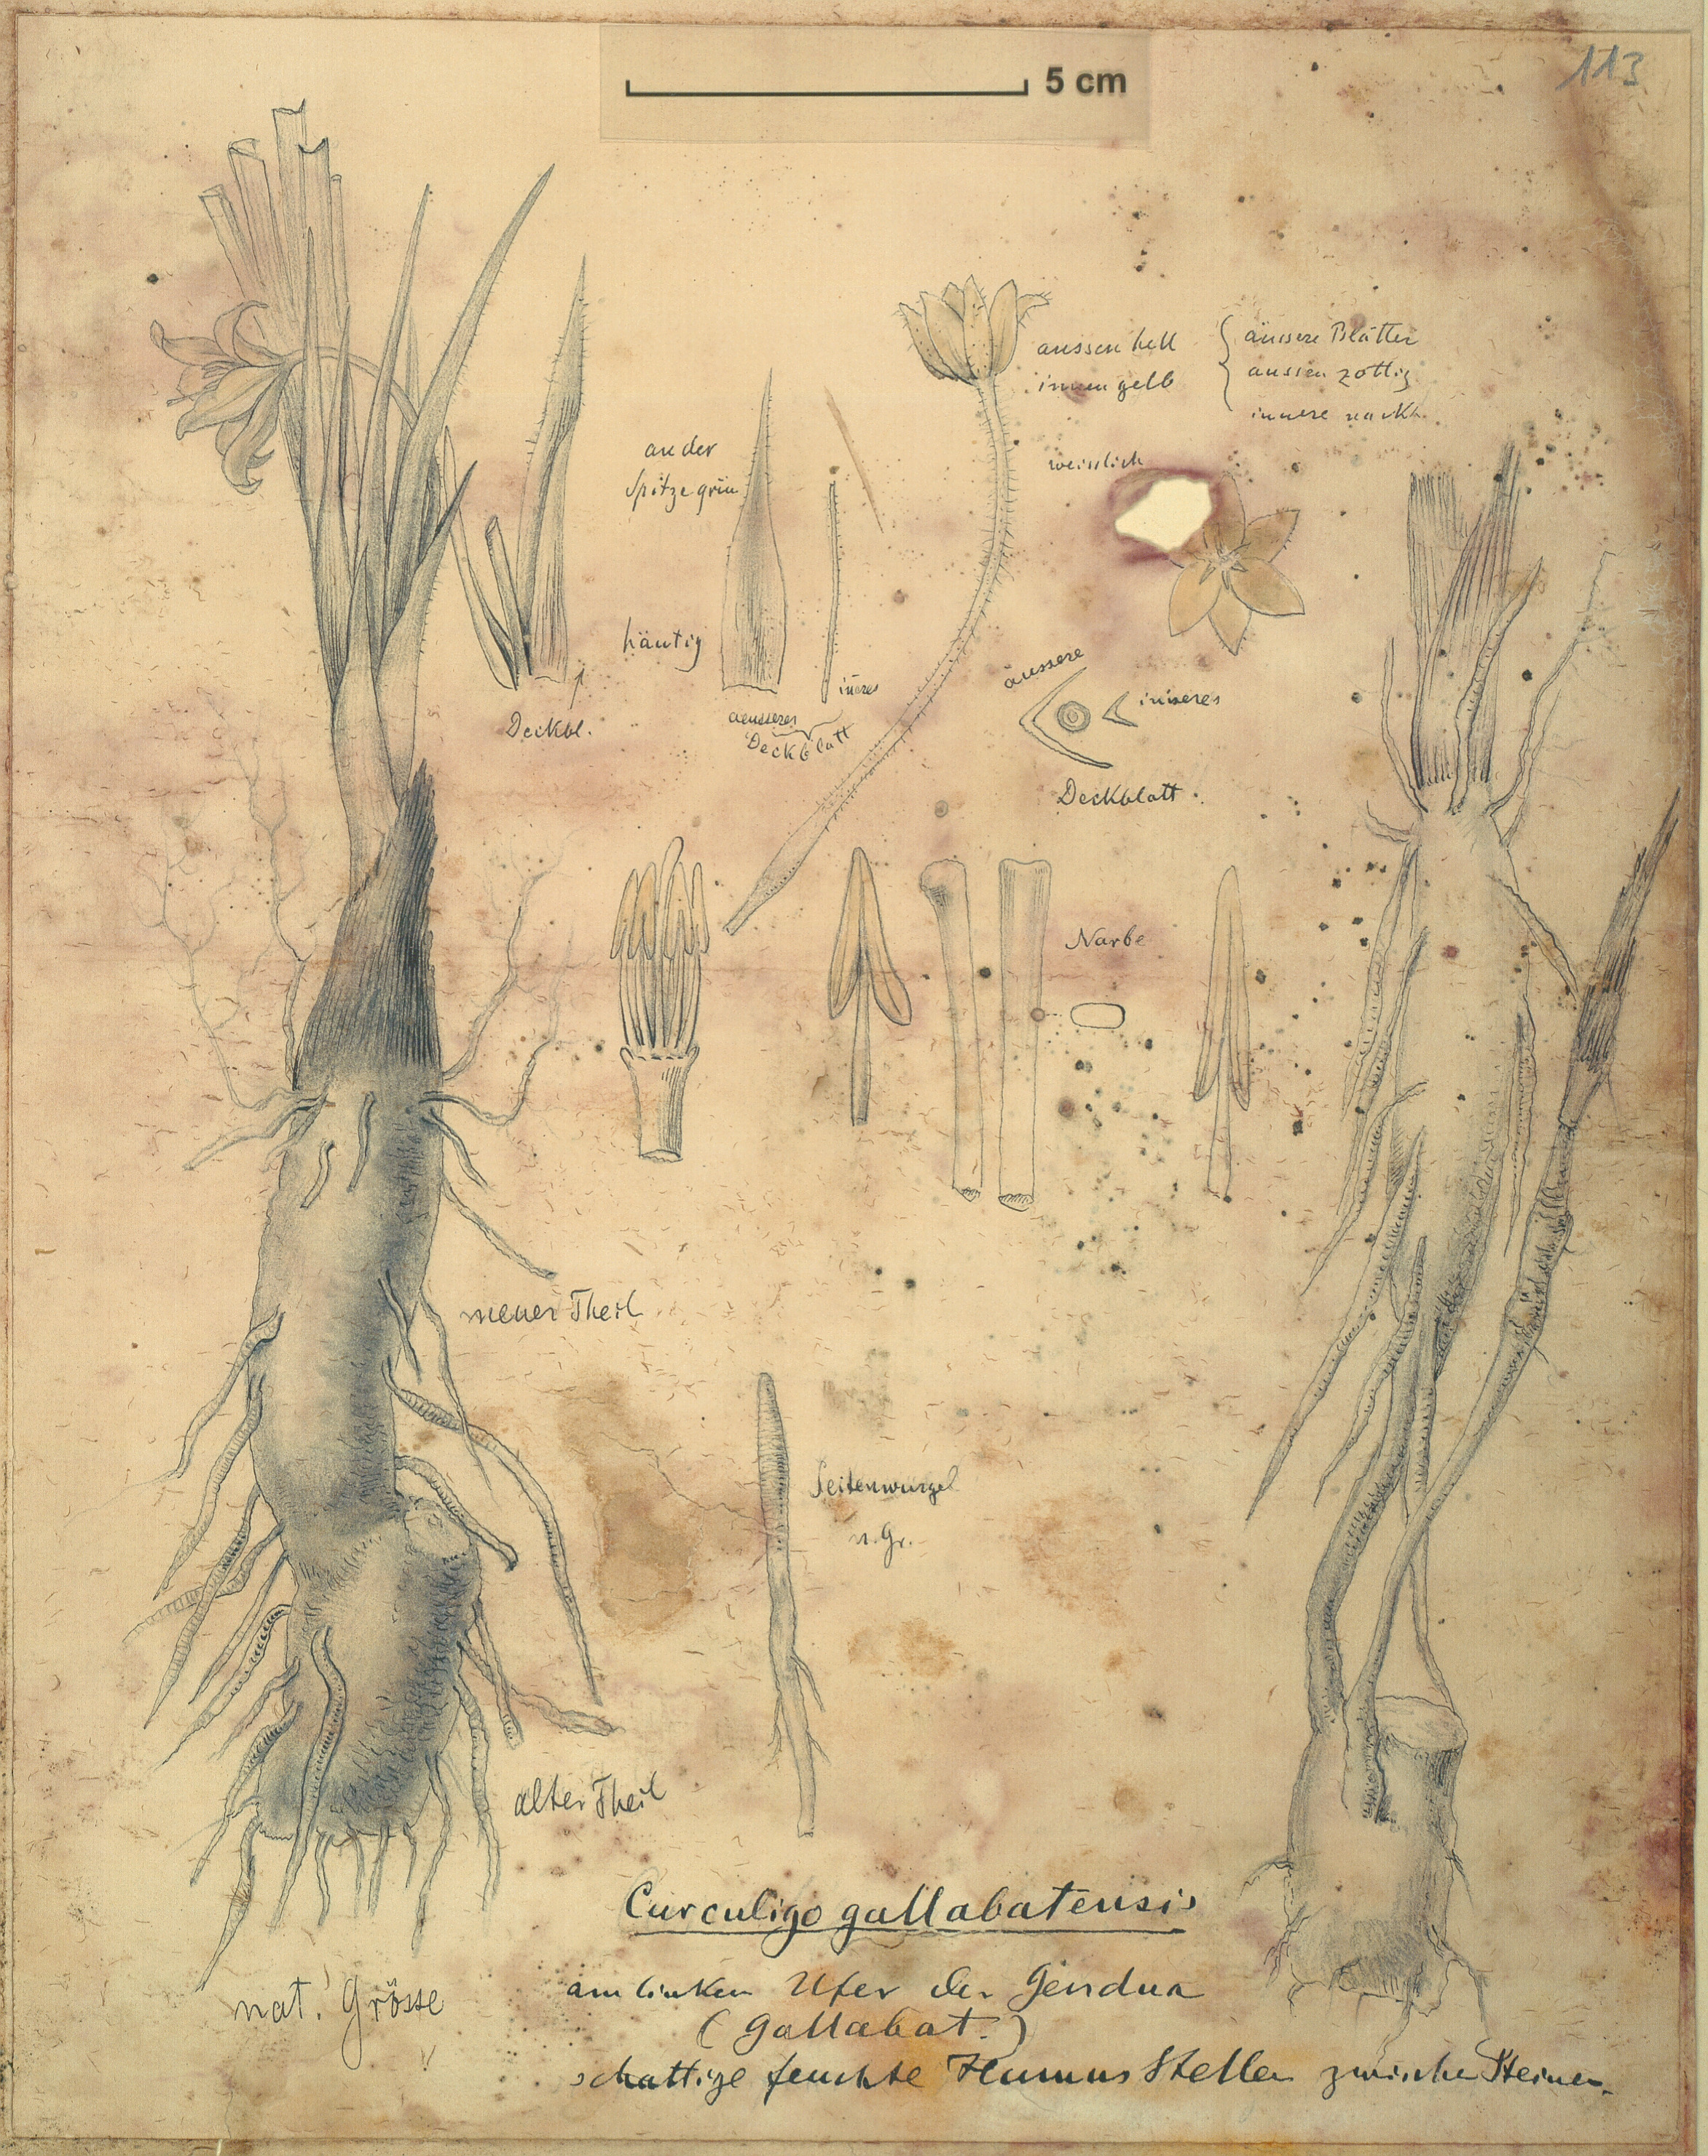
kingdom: Plantae
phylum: Tracheophyta
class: Liliopsida
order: Asparagales
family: Hypoxidaceae
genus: Curculigo
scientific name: Curculigo pilosa
